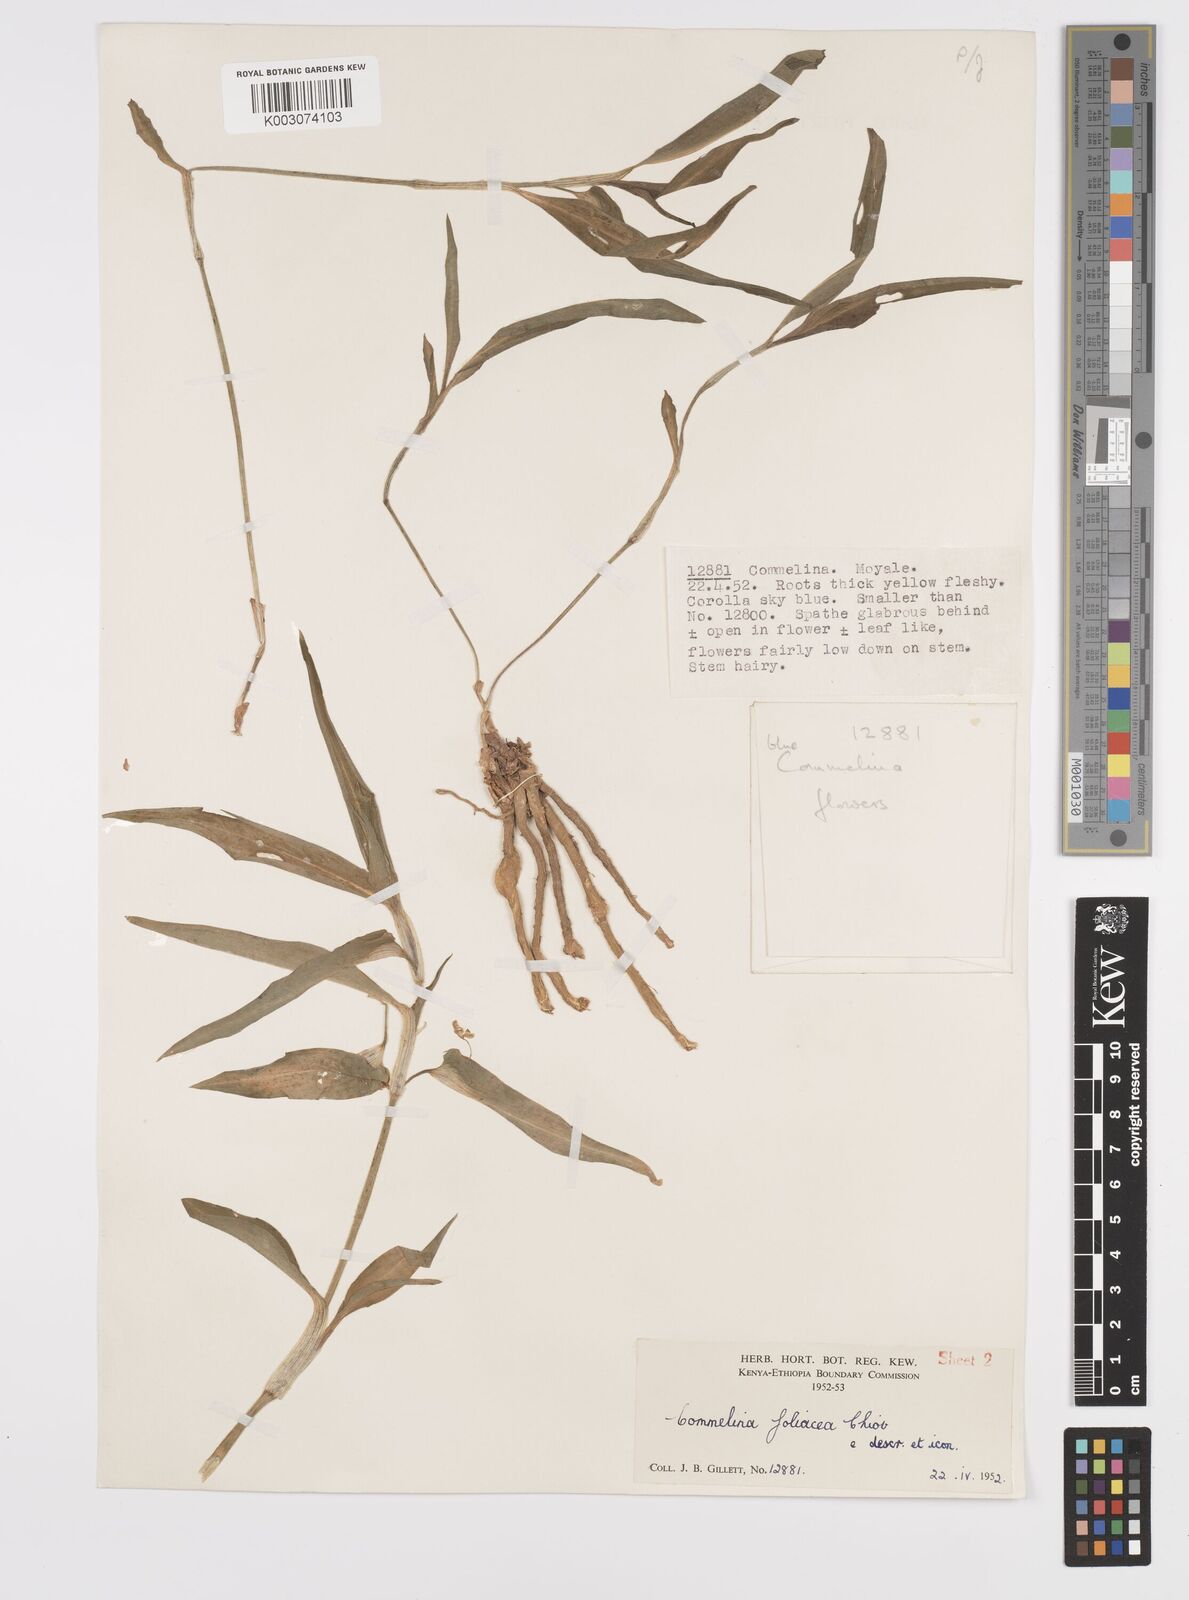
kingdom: Plantae
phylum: Tracheophyta
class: Liliopsida
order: Commelinales
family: Commelinaceae
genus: Commelina
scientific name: Commelina foliacea
